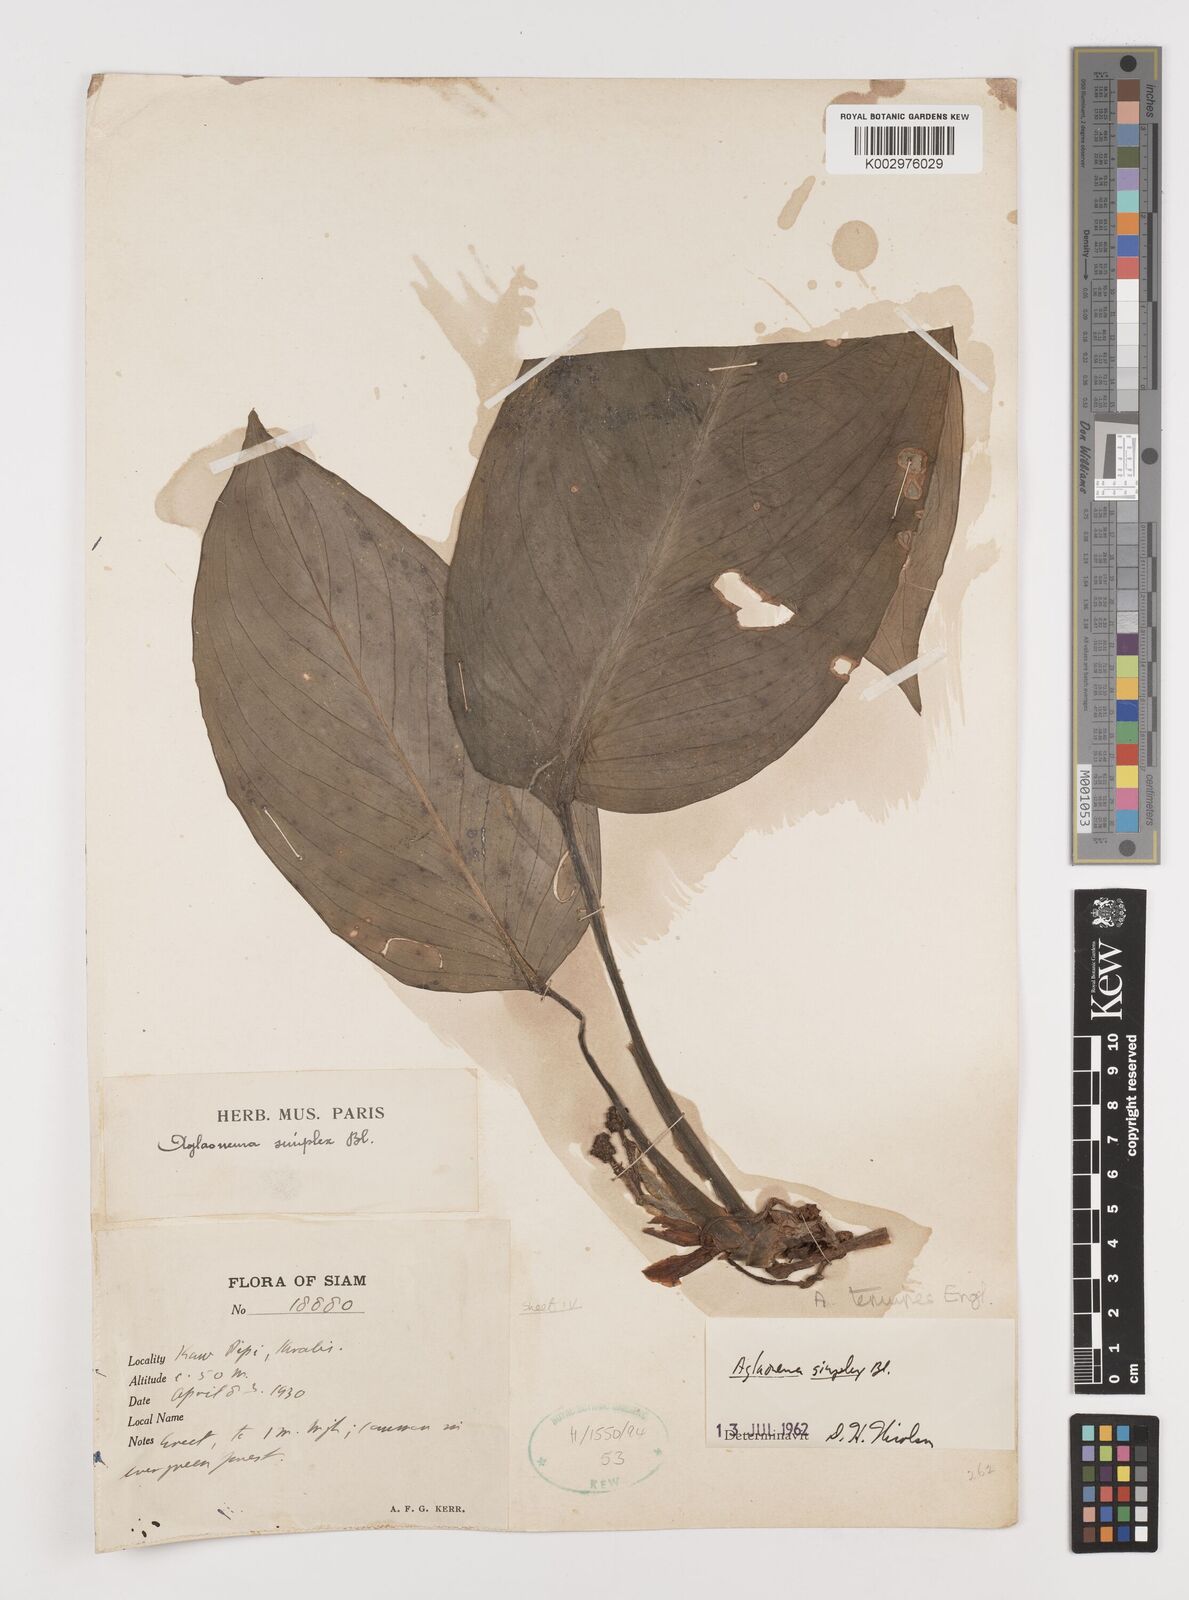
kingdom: Plantae
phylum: Tracheophyta
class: Liliopsida
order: Alismatales
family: Araceae
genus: Aglaonema
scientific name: Aglaonema simplex
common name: Malayan-sword
